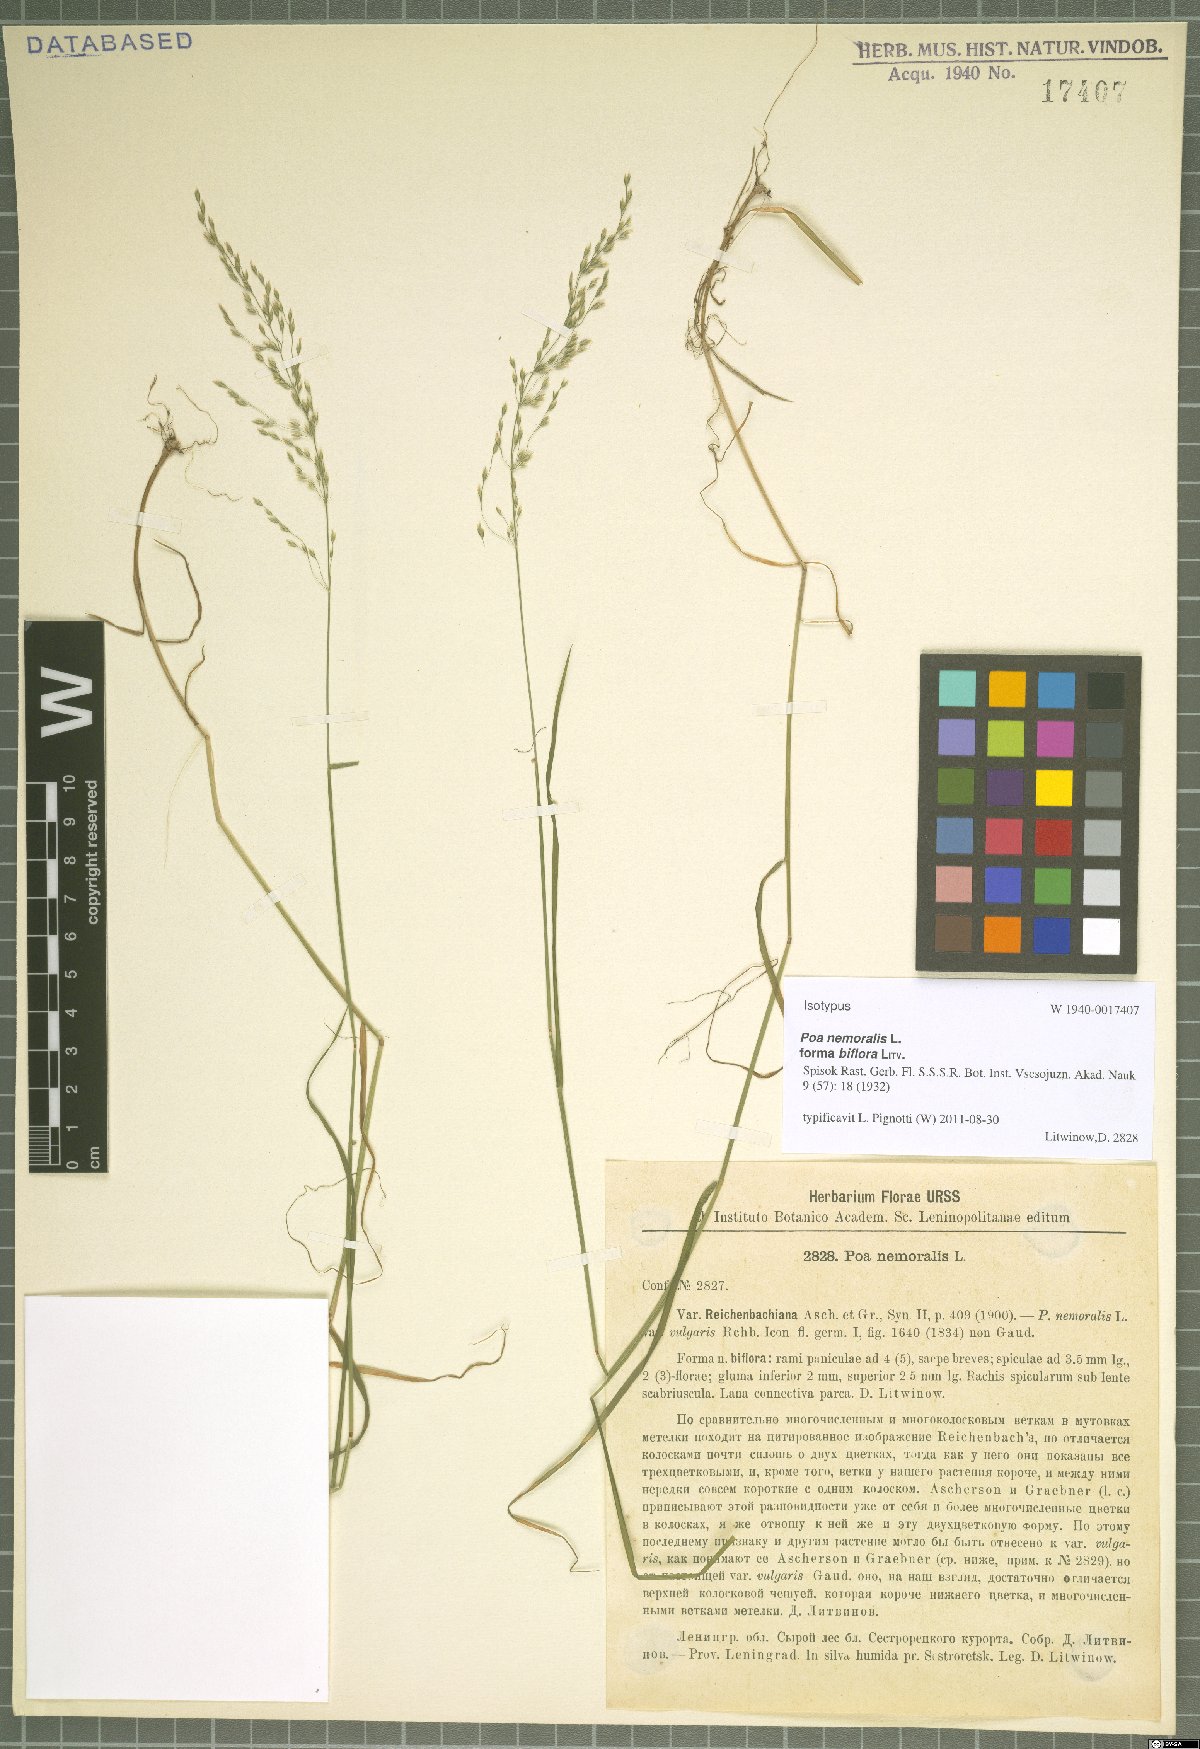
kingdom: Plantae
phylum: Tracheophyta
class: Liliopsida
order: Poales
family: Poaceae
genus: Poa
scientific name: Poa nemoralis
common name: Wood bluegrass
